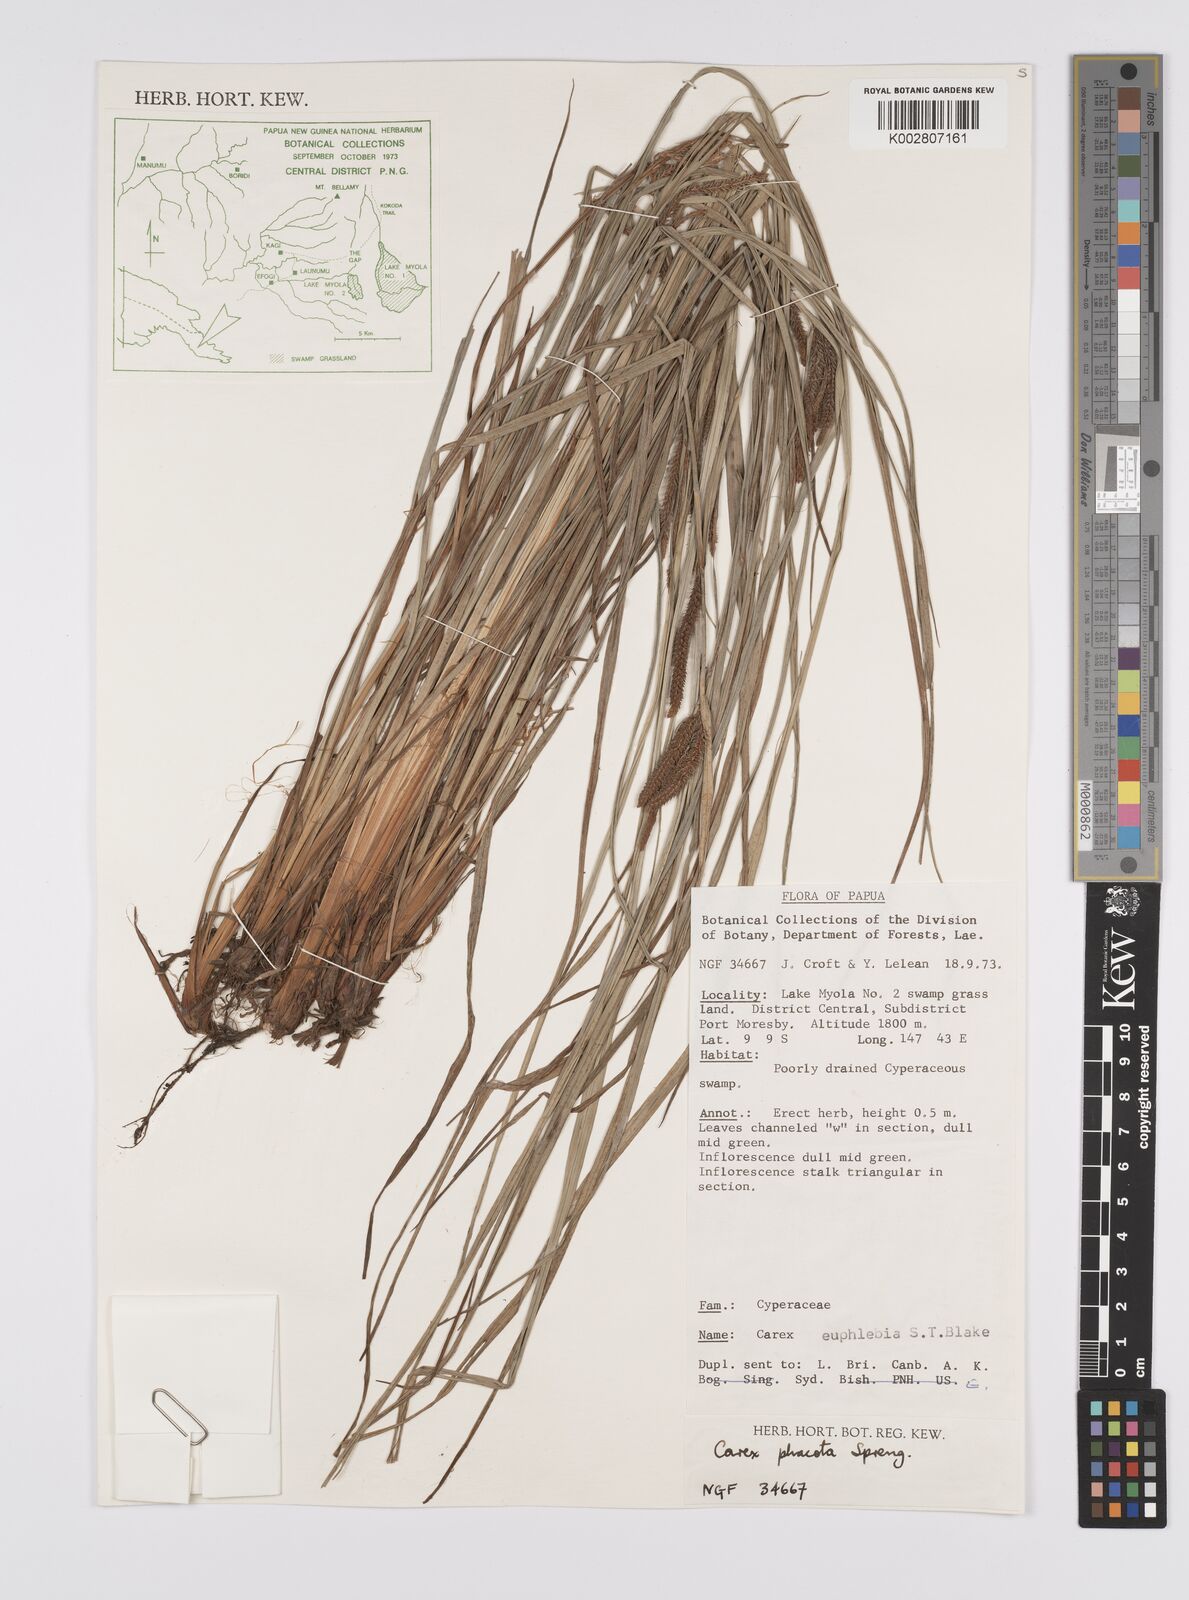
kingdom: Plantae
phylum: Tracheophyta
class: Liliopsida
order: Poales
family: Cyperaceae
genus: Carex
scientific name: Carex phacota
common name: Lakeshore sedge
